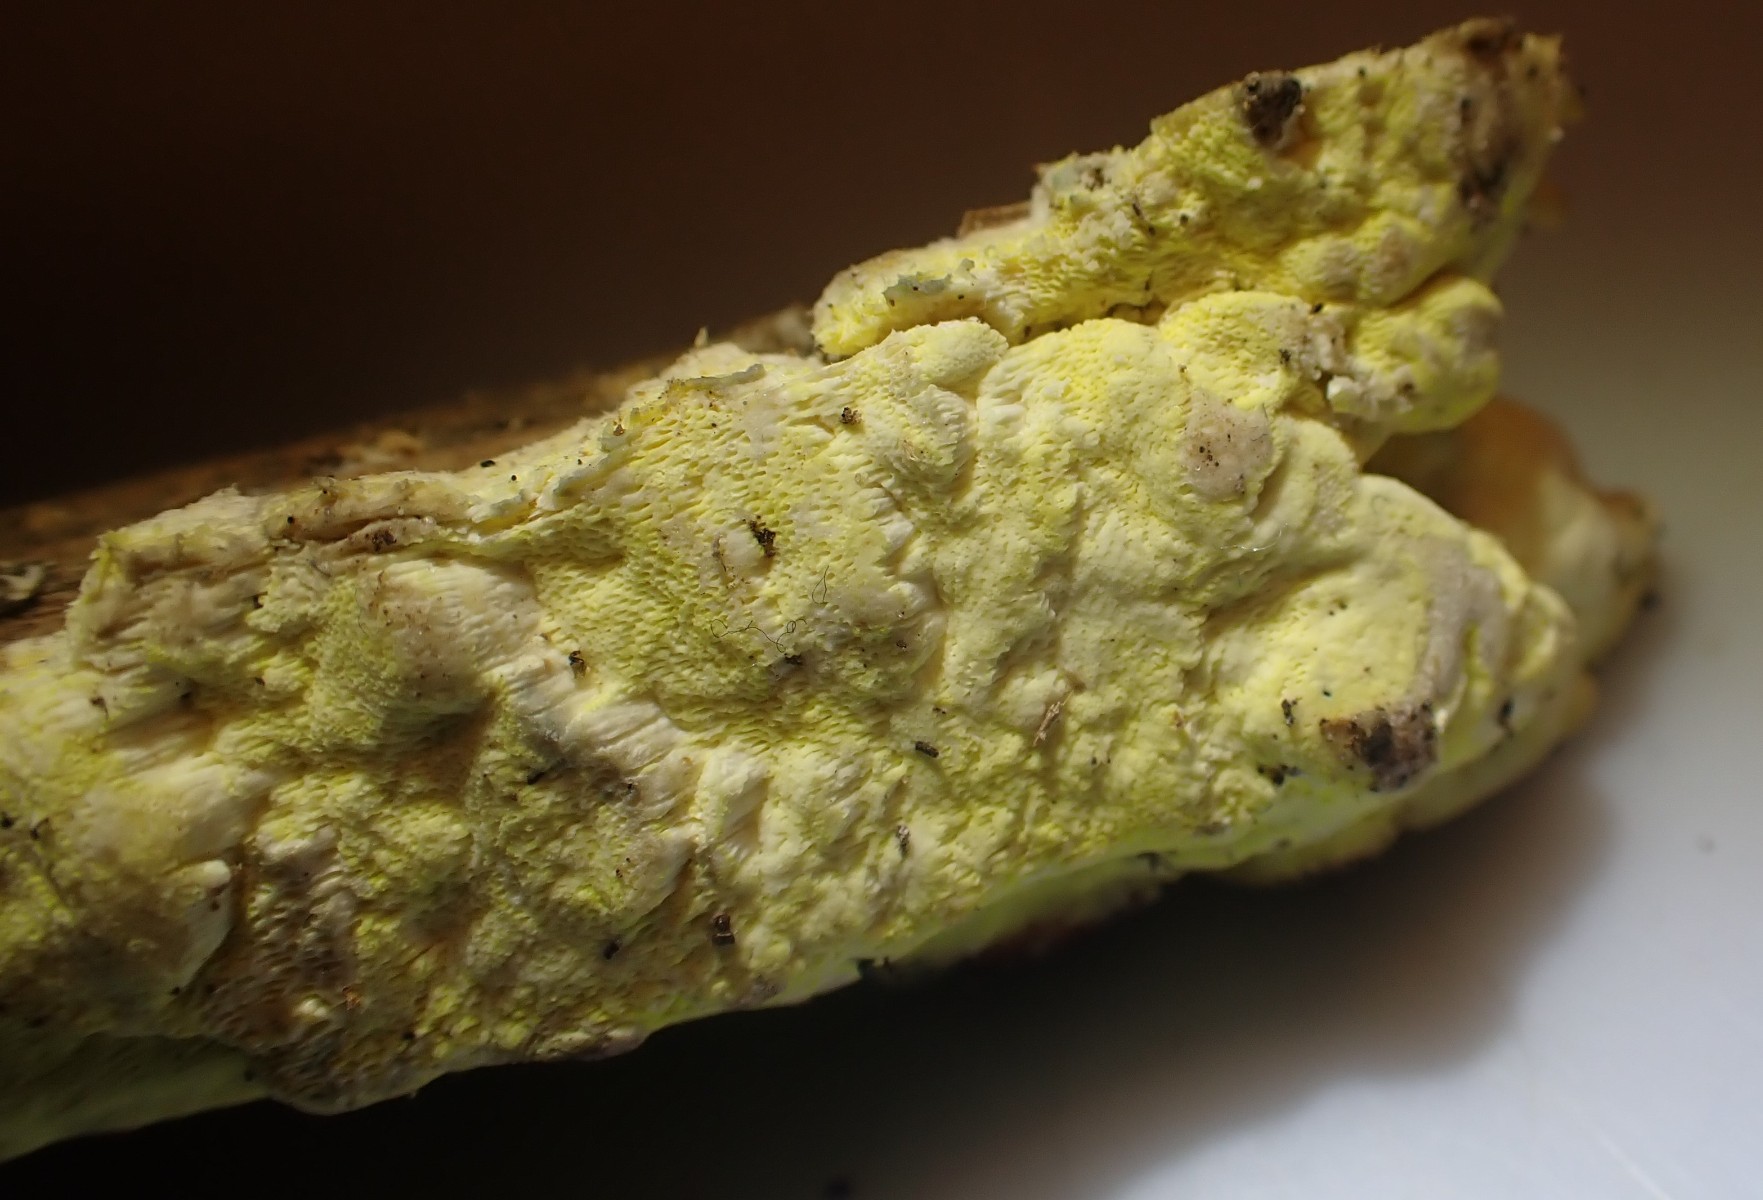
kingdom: Fungi
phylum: Basidiomycota
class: Agaricomycetes
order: Polyporales
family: Fomitopsidaceae
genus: Daedalea
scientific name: Daedalea xantha
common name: gul sejporesvamp
